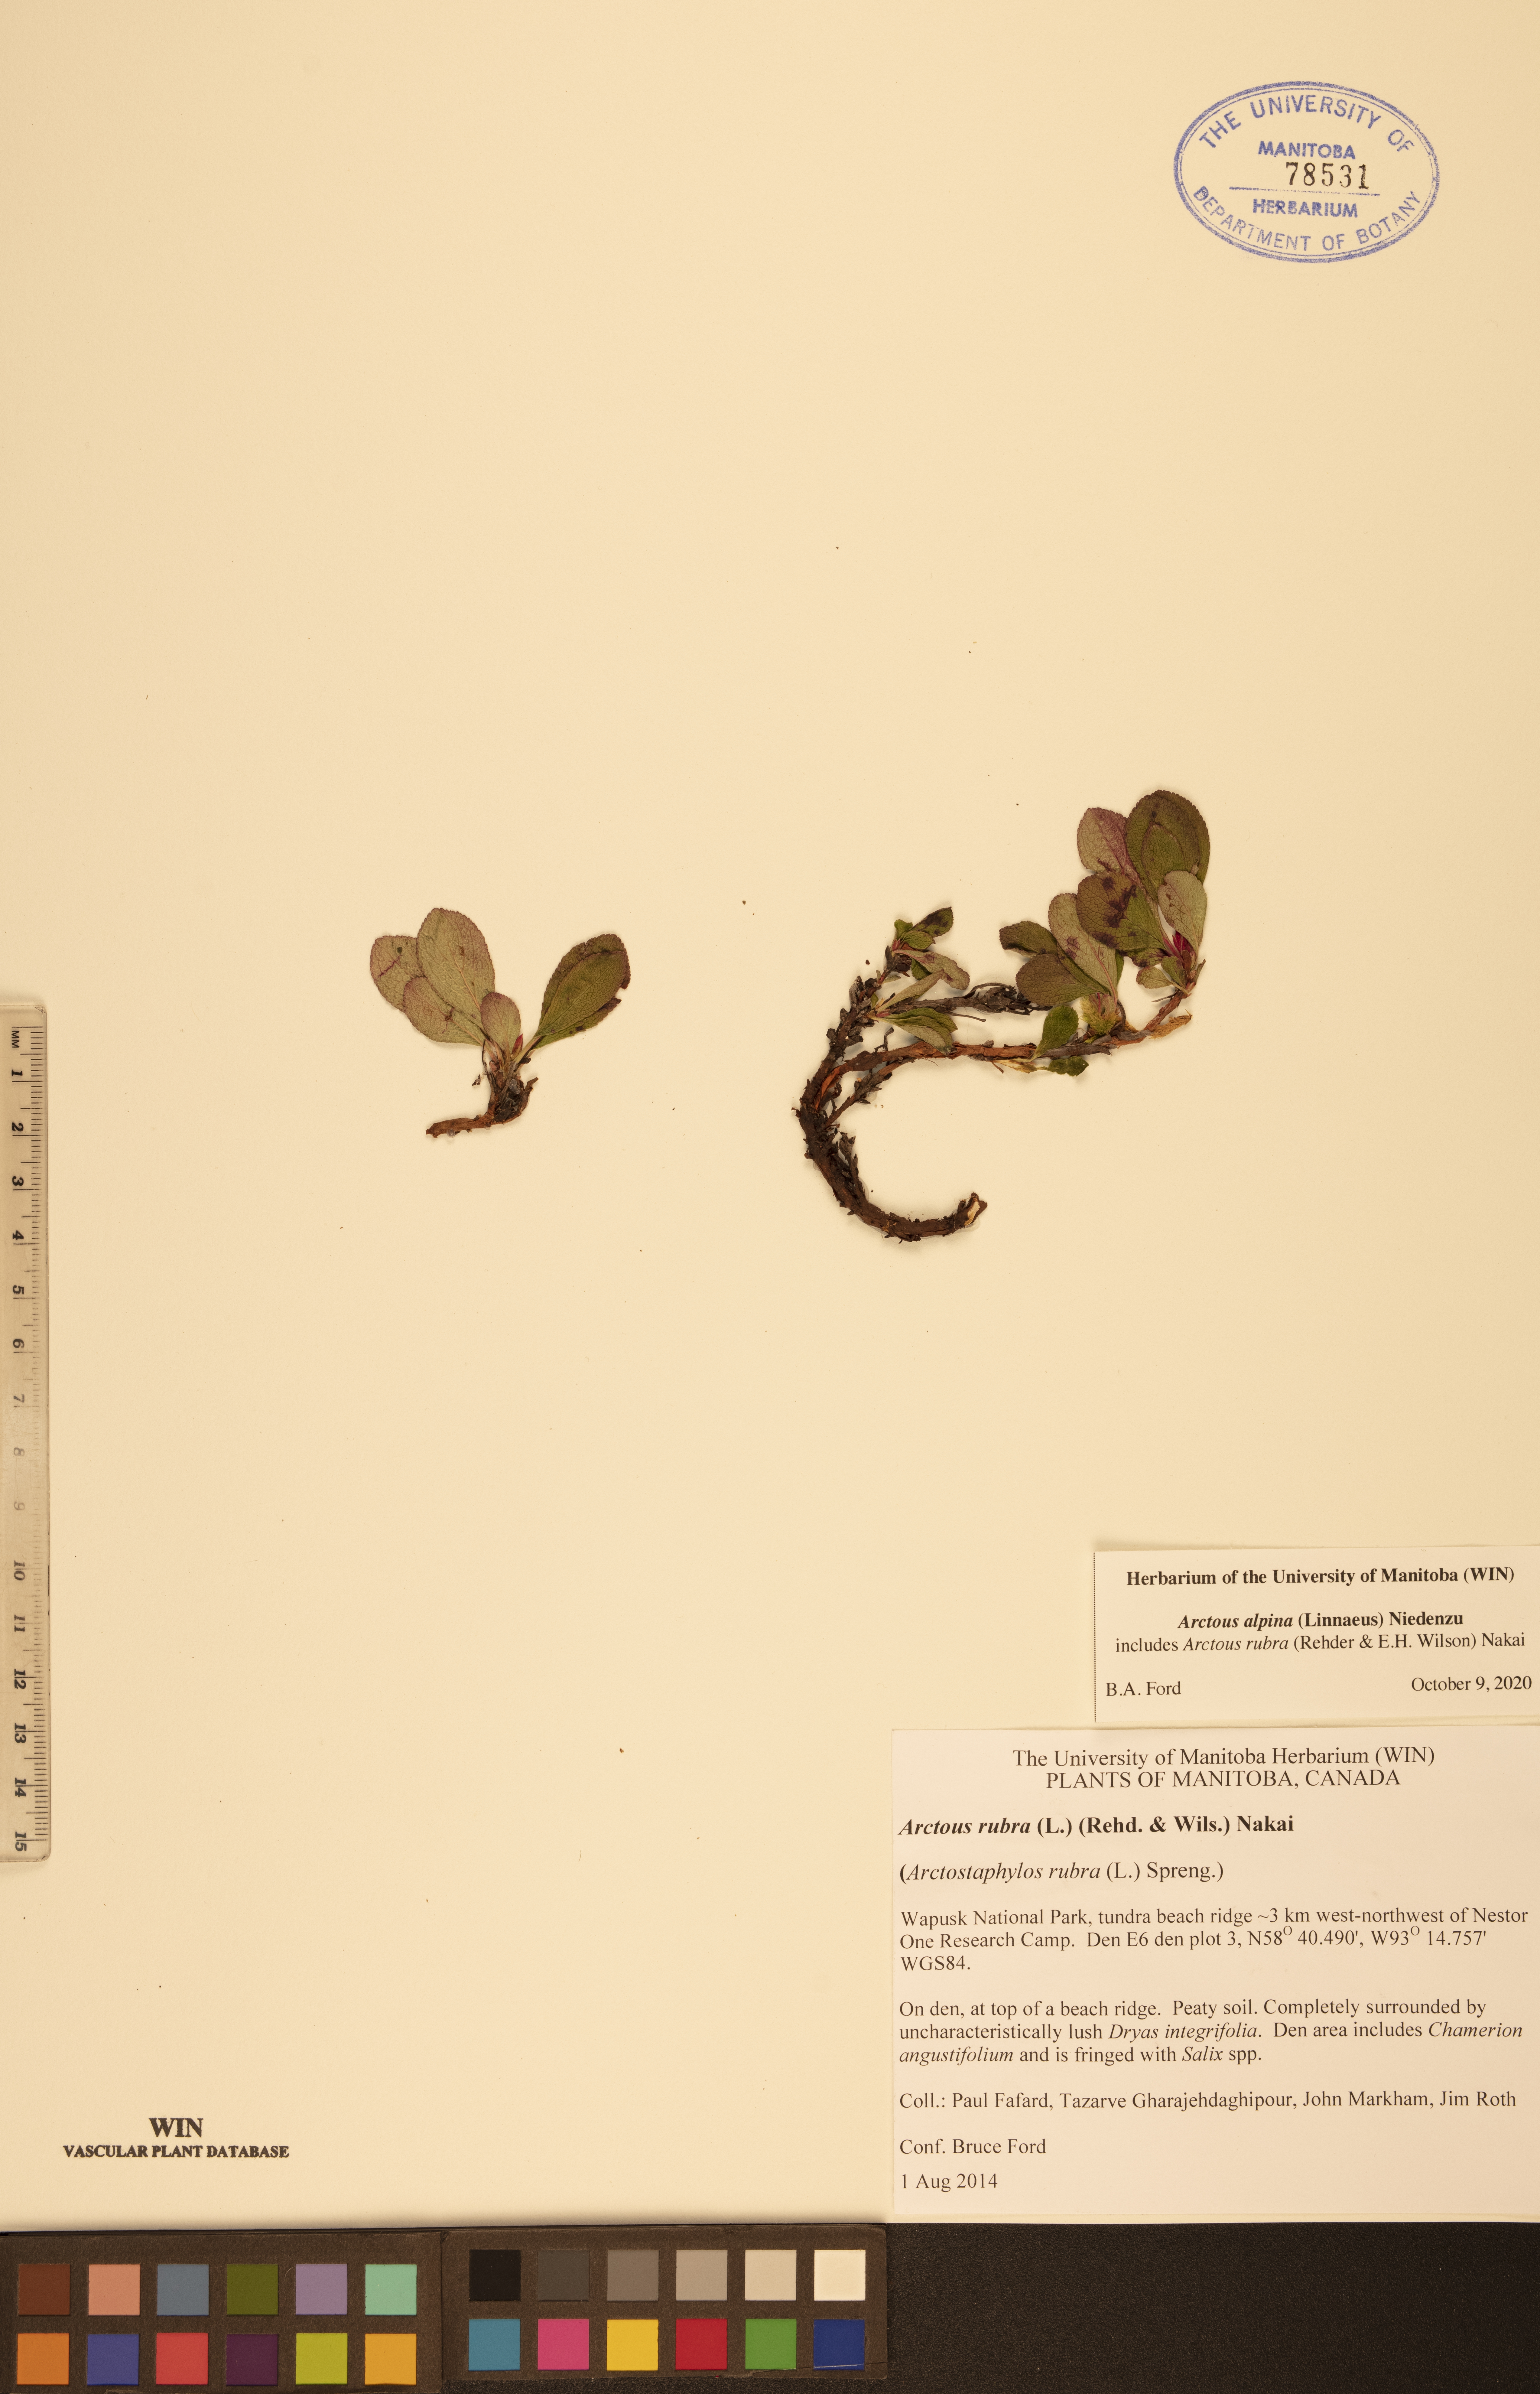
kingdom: Plantae
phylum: Tracheophyta
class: Magnoliopsida
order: Ericales
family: Ericaceae
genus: Arctostaphylos
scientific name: Arctostaphylos alpinus
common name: Alpine bearberry
